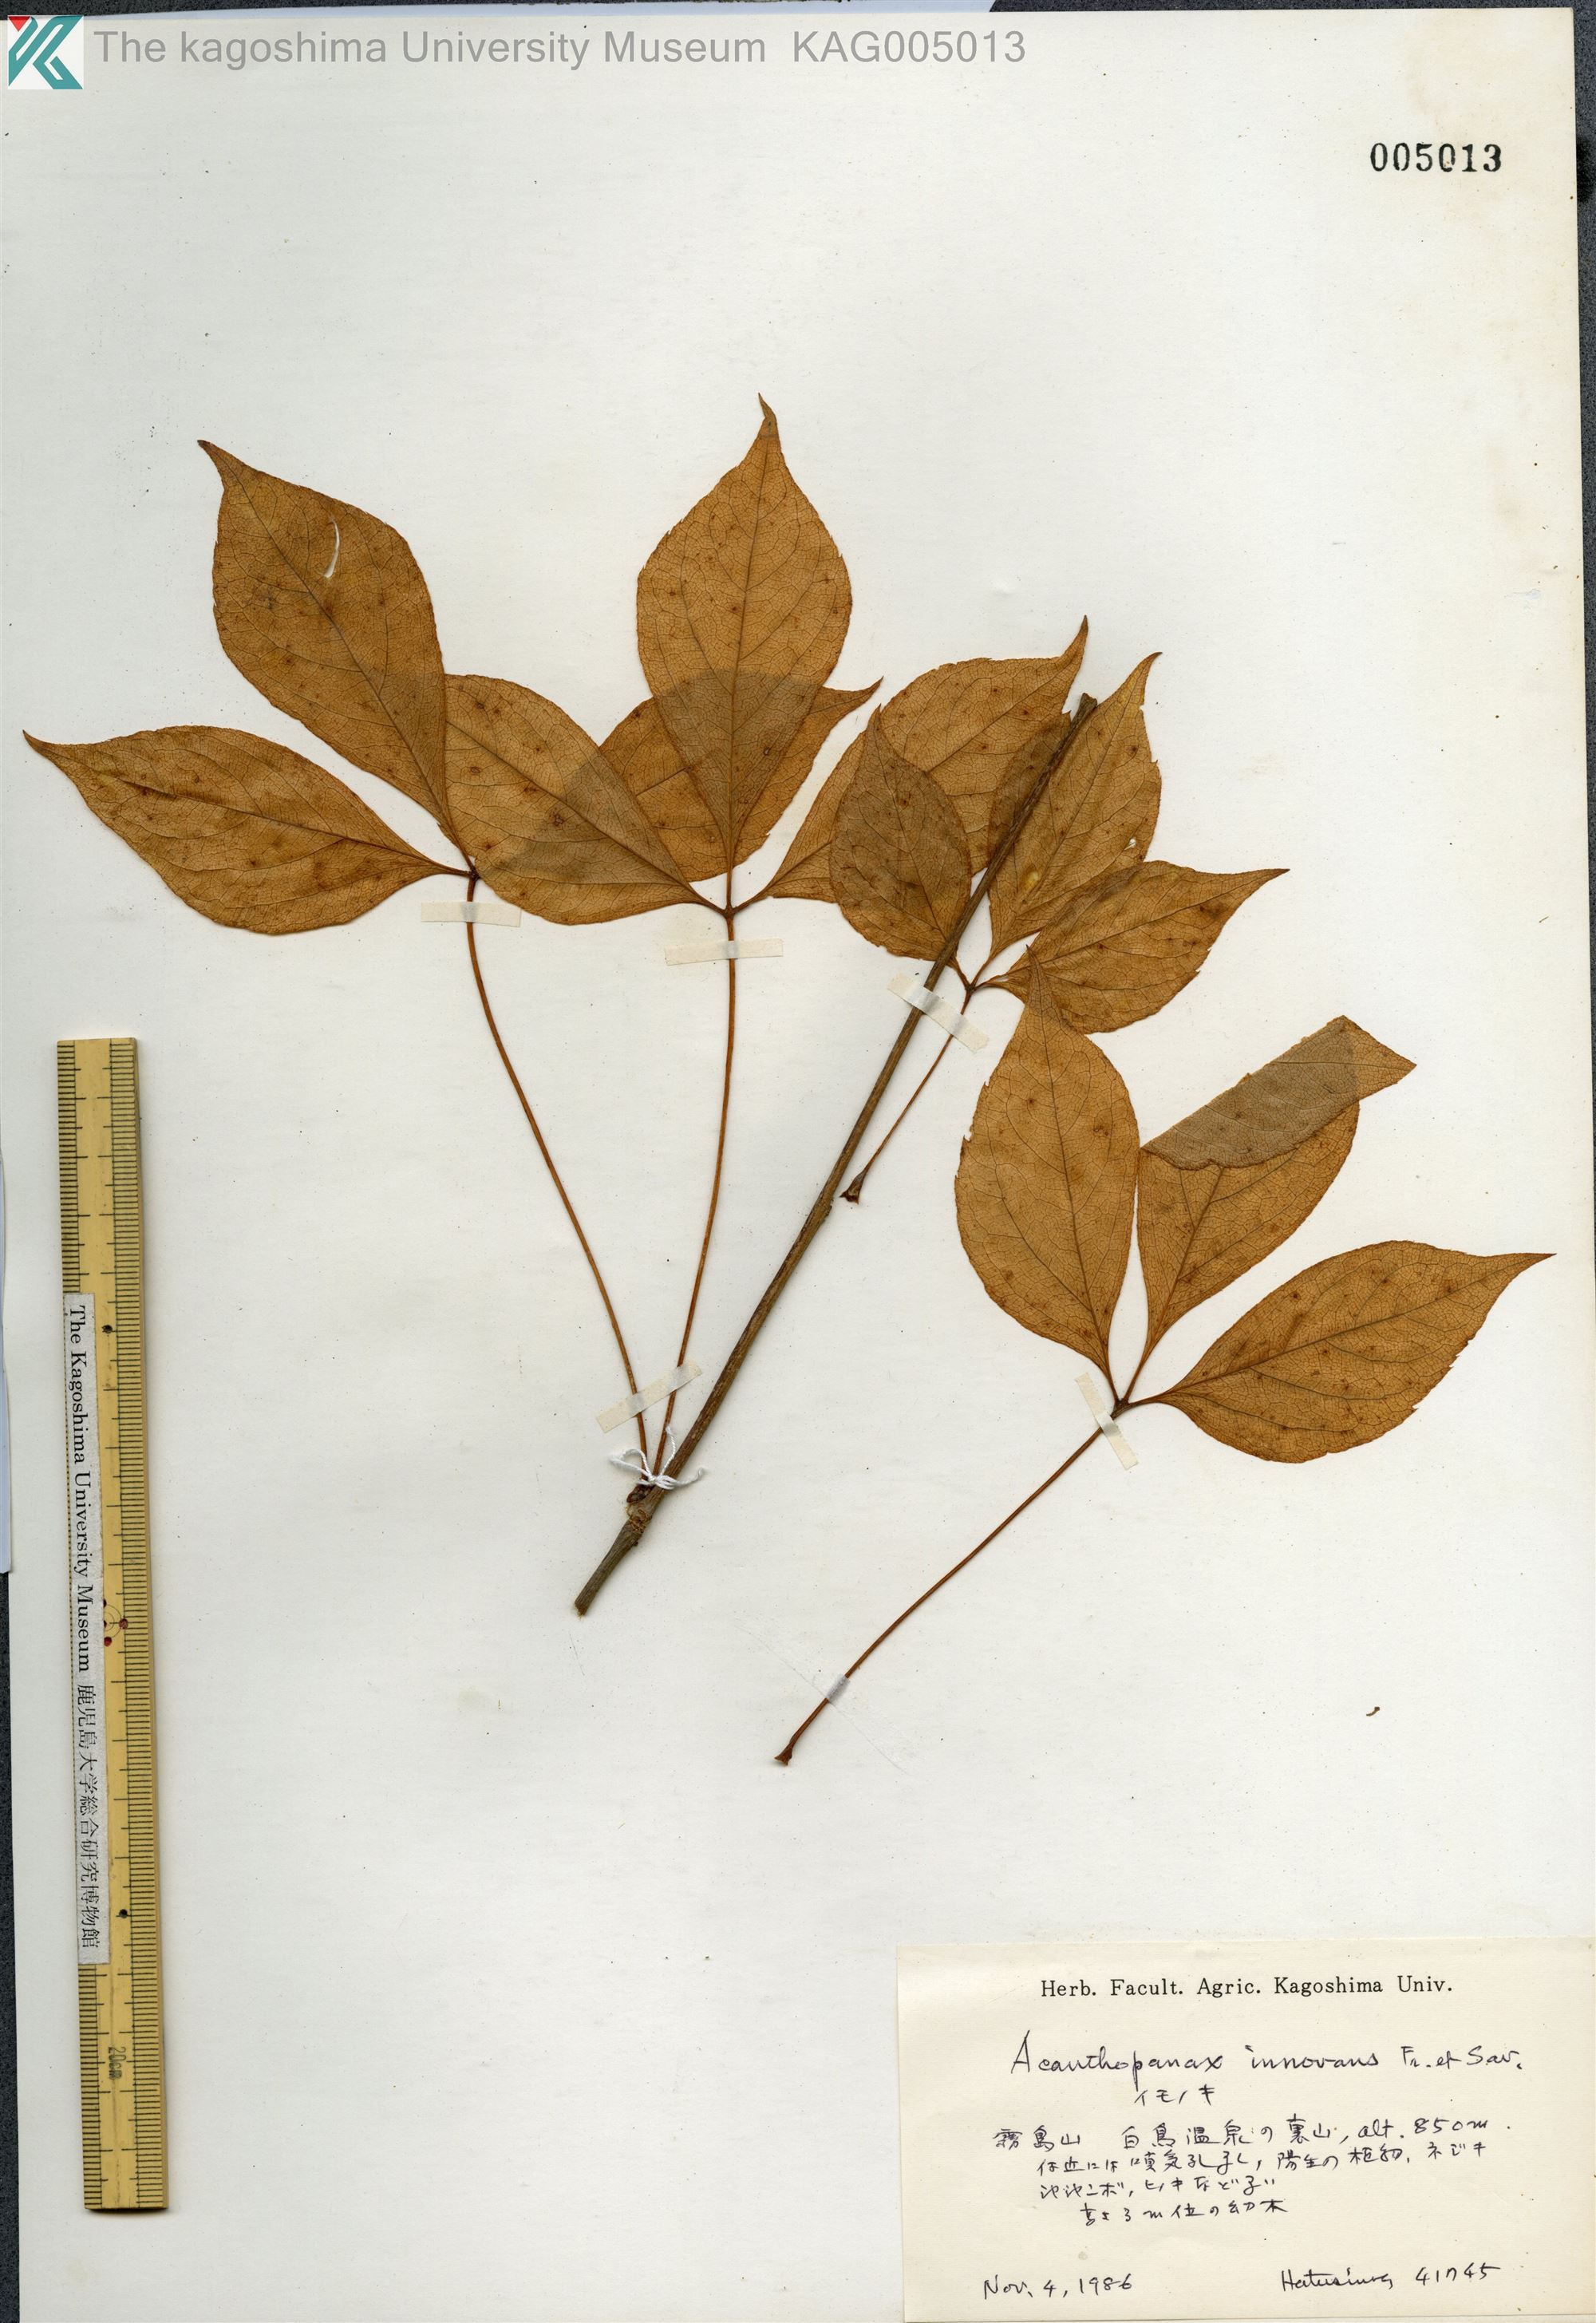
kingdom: Plantae
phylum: Tracheophyta
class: Magnoliopsida
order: Apiales
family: Araliaceae
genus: Gamblea
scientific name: Gamblea innovans
